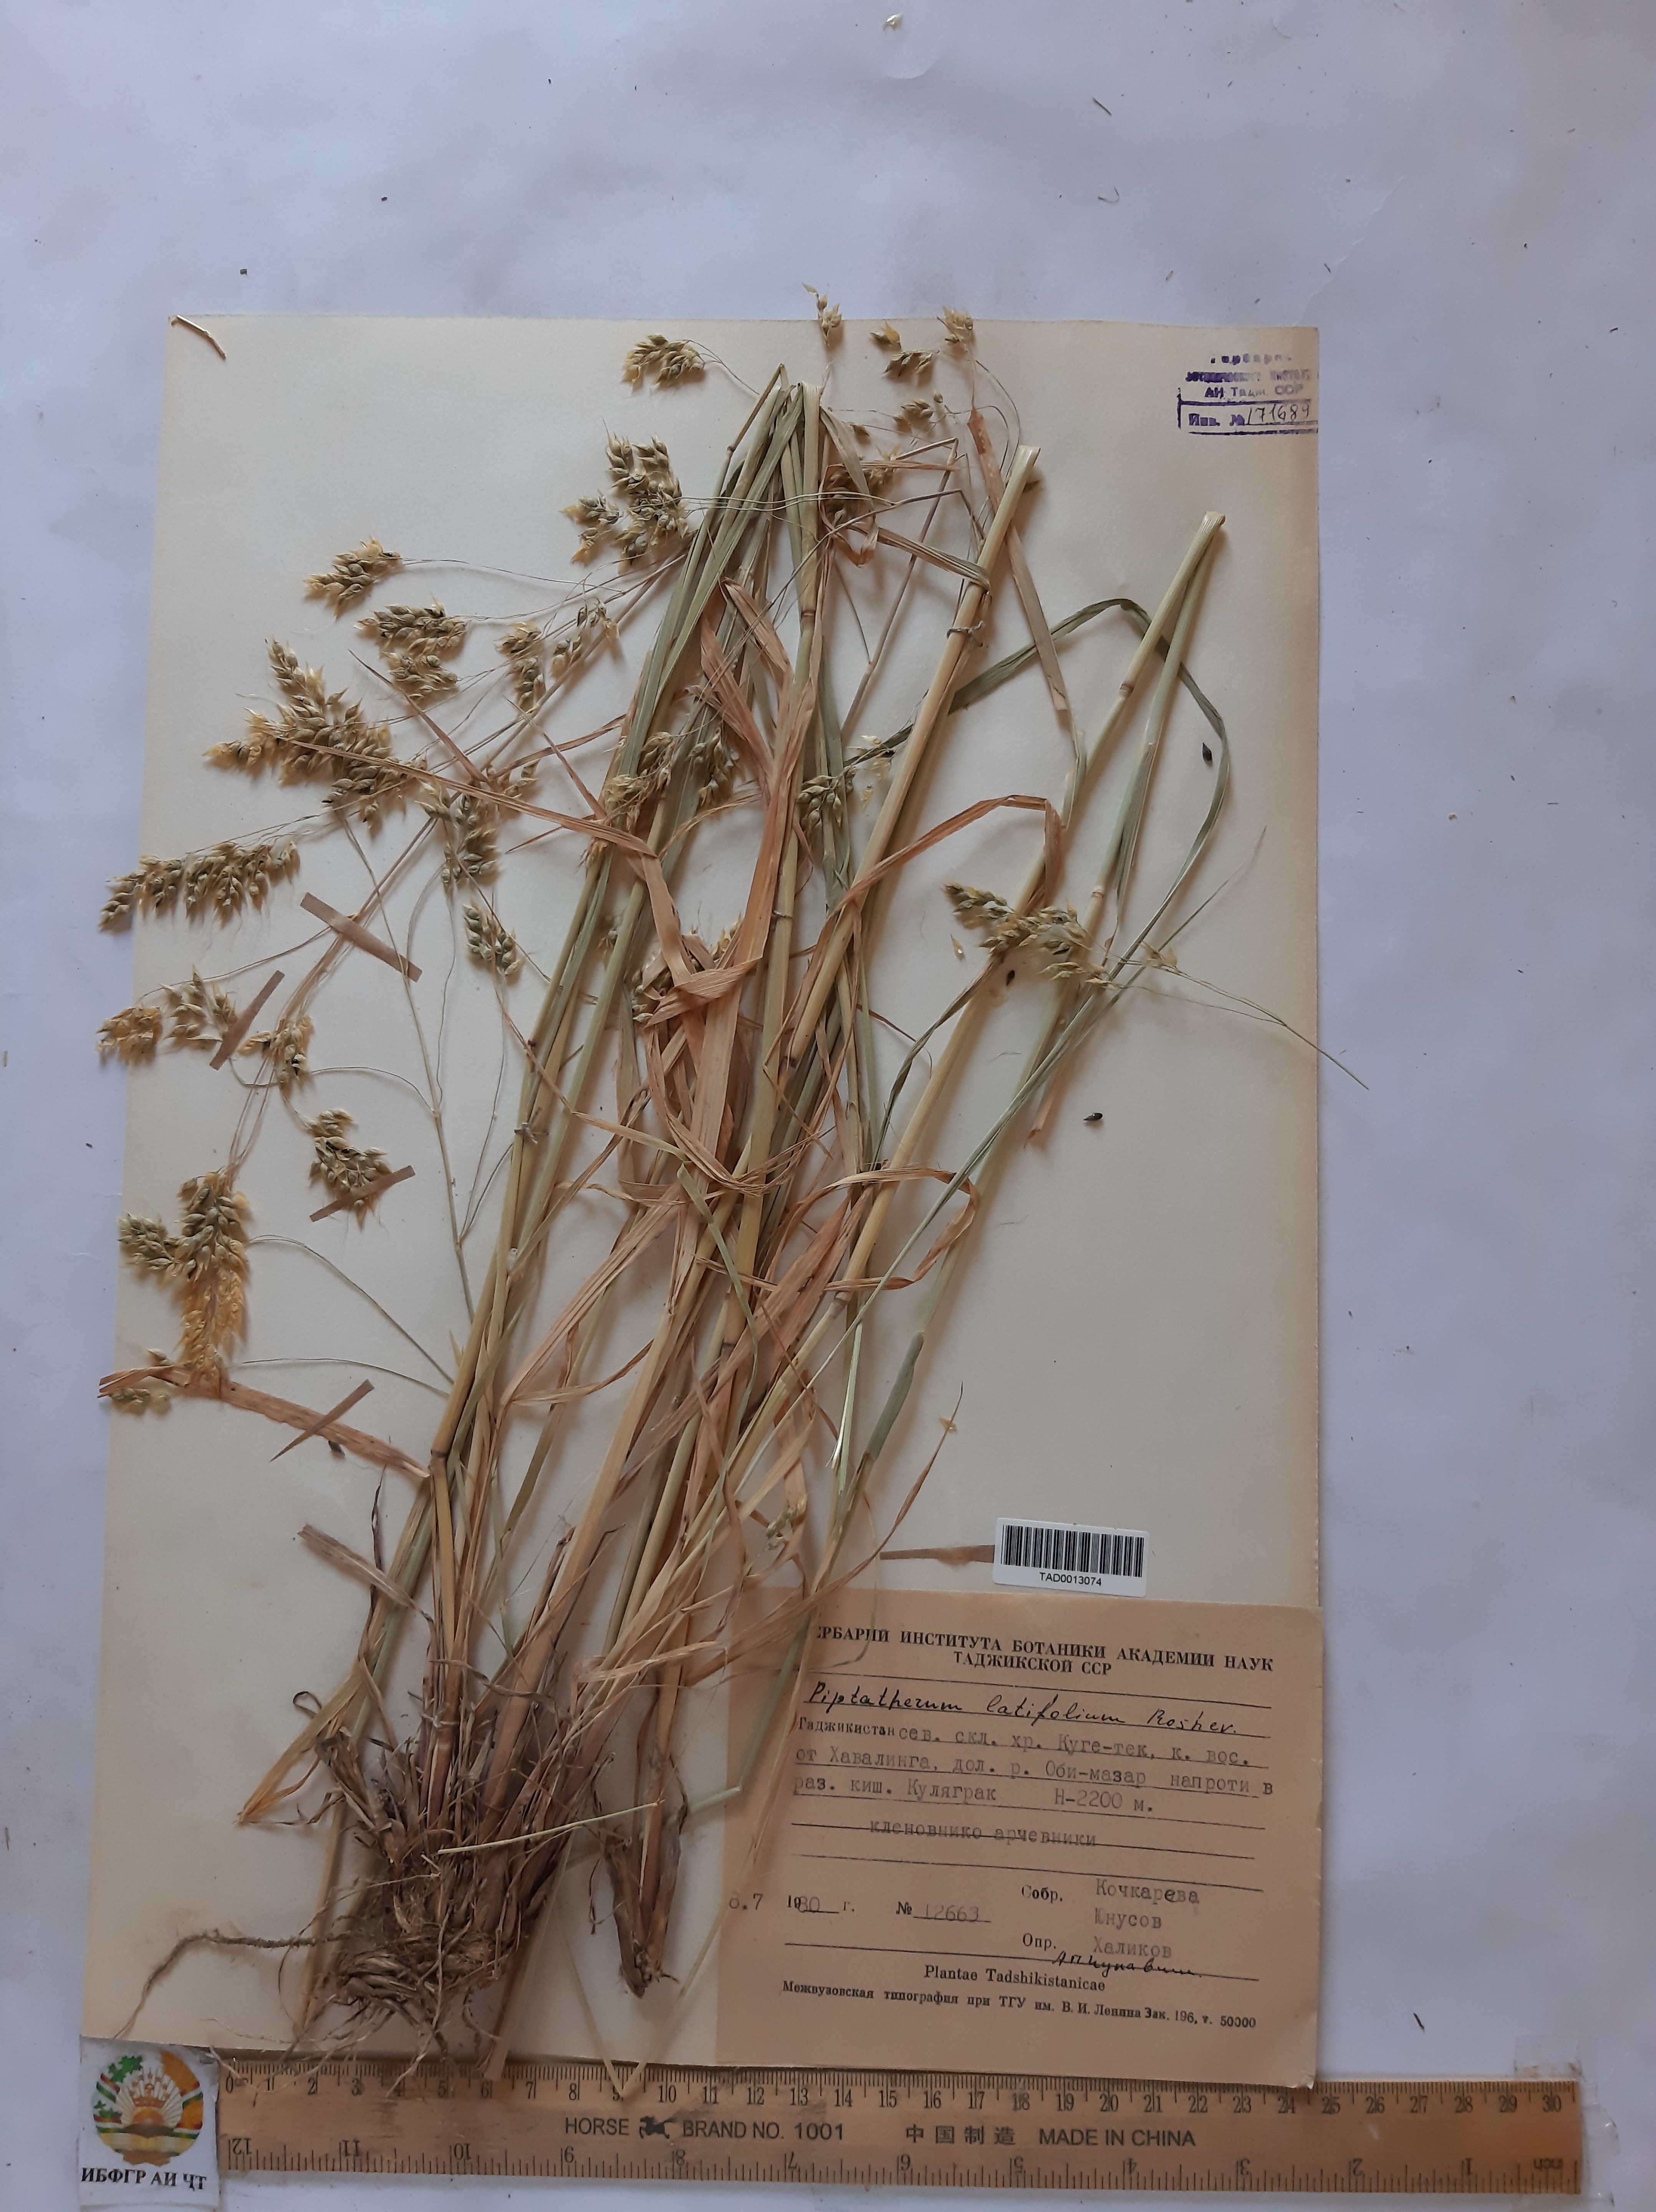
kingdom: Plantae
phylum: Tracheophyta
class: Liliopsida
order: Poales
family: Poaceae
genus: Piptatherum
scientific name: Piptatherum laterale
